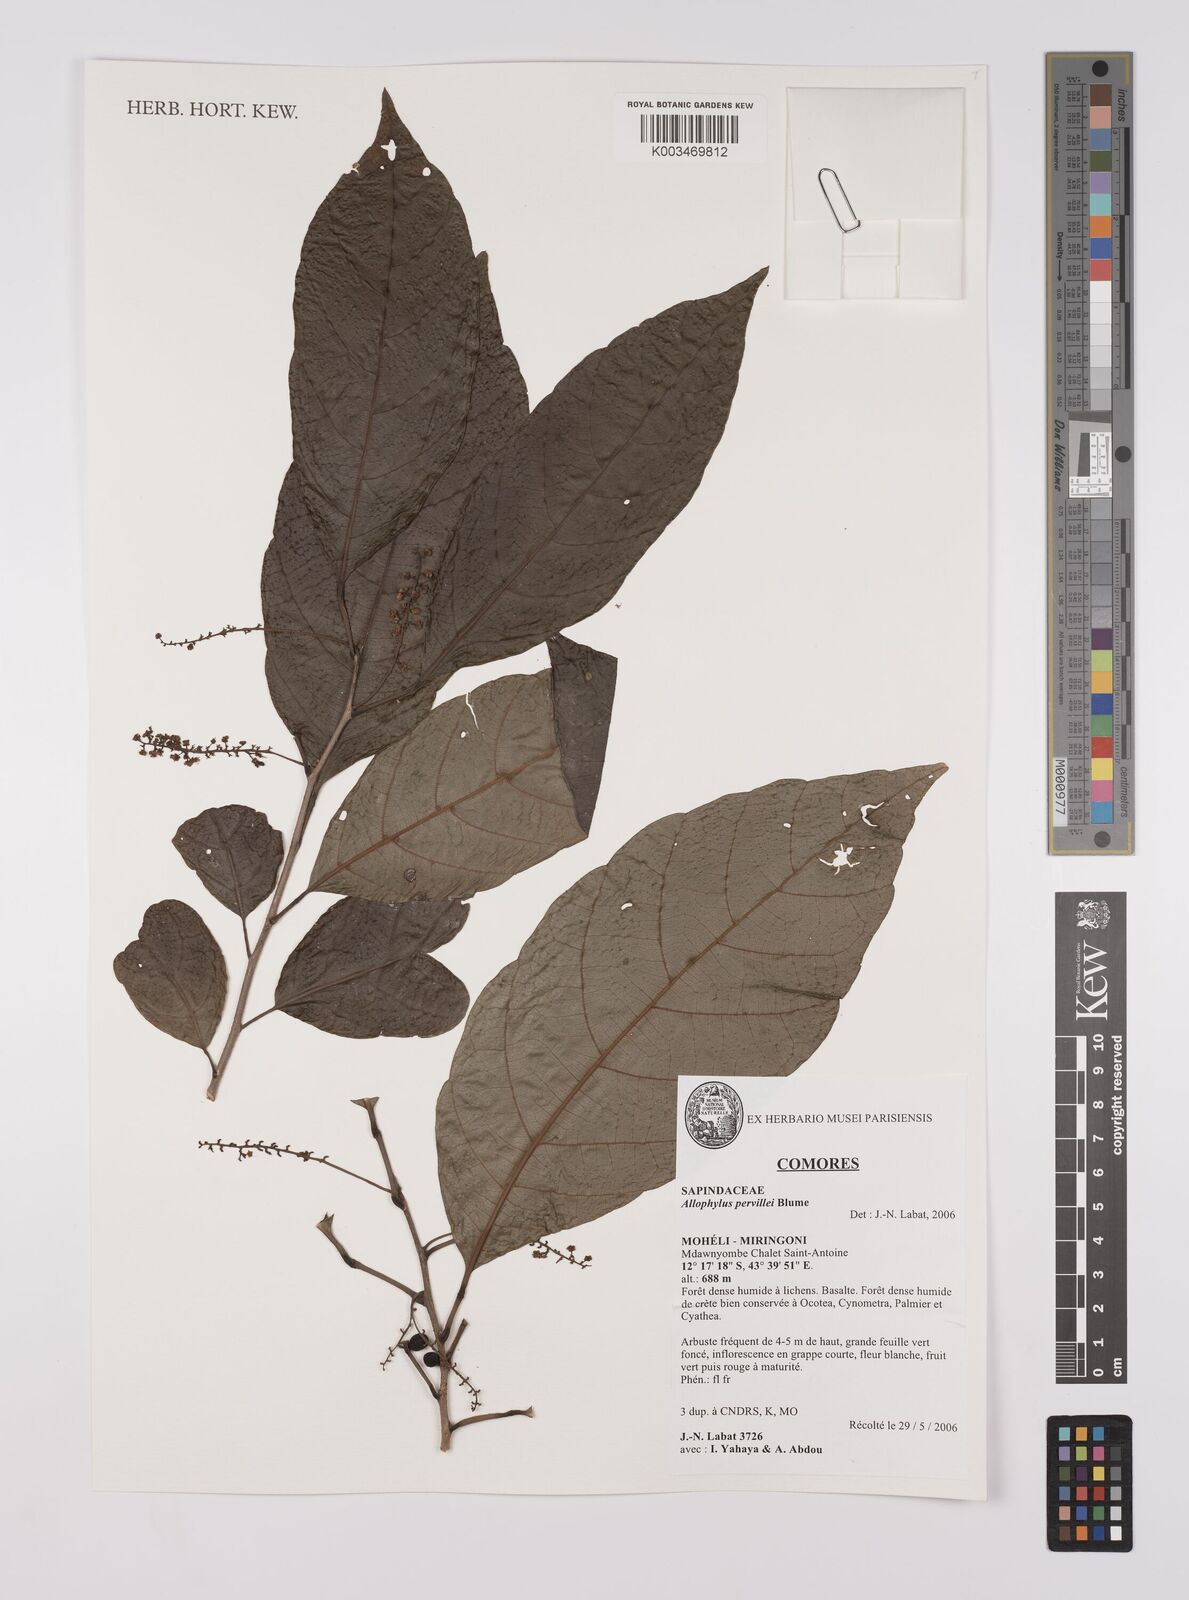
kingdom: Plantae
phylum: Tracheophyta
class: Magnoliopsida
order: Sapindales
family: Sapindaceae
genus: Allophylus
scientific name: Allophylus pervillei
